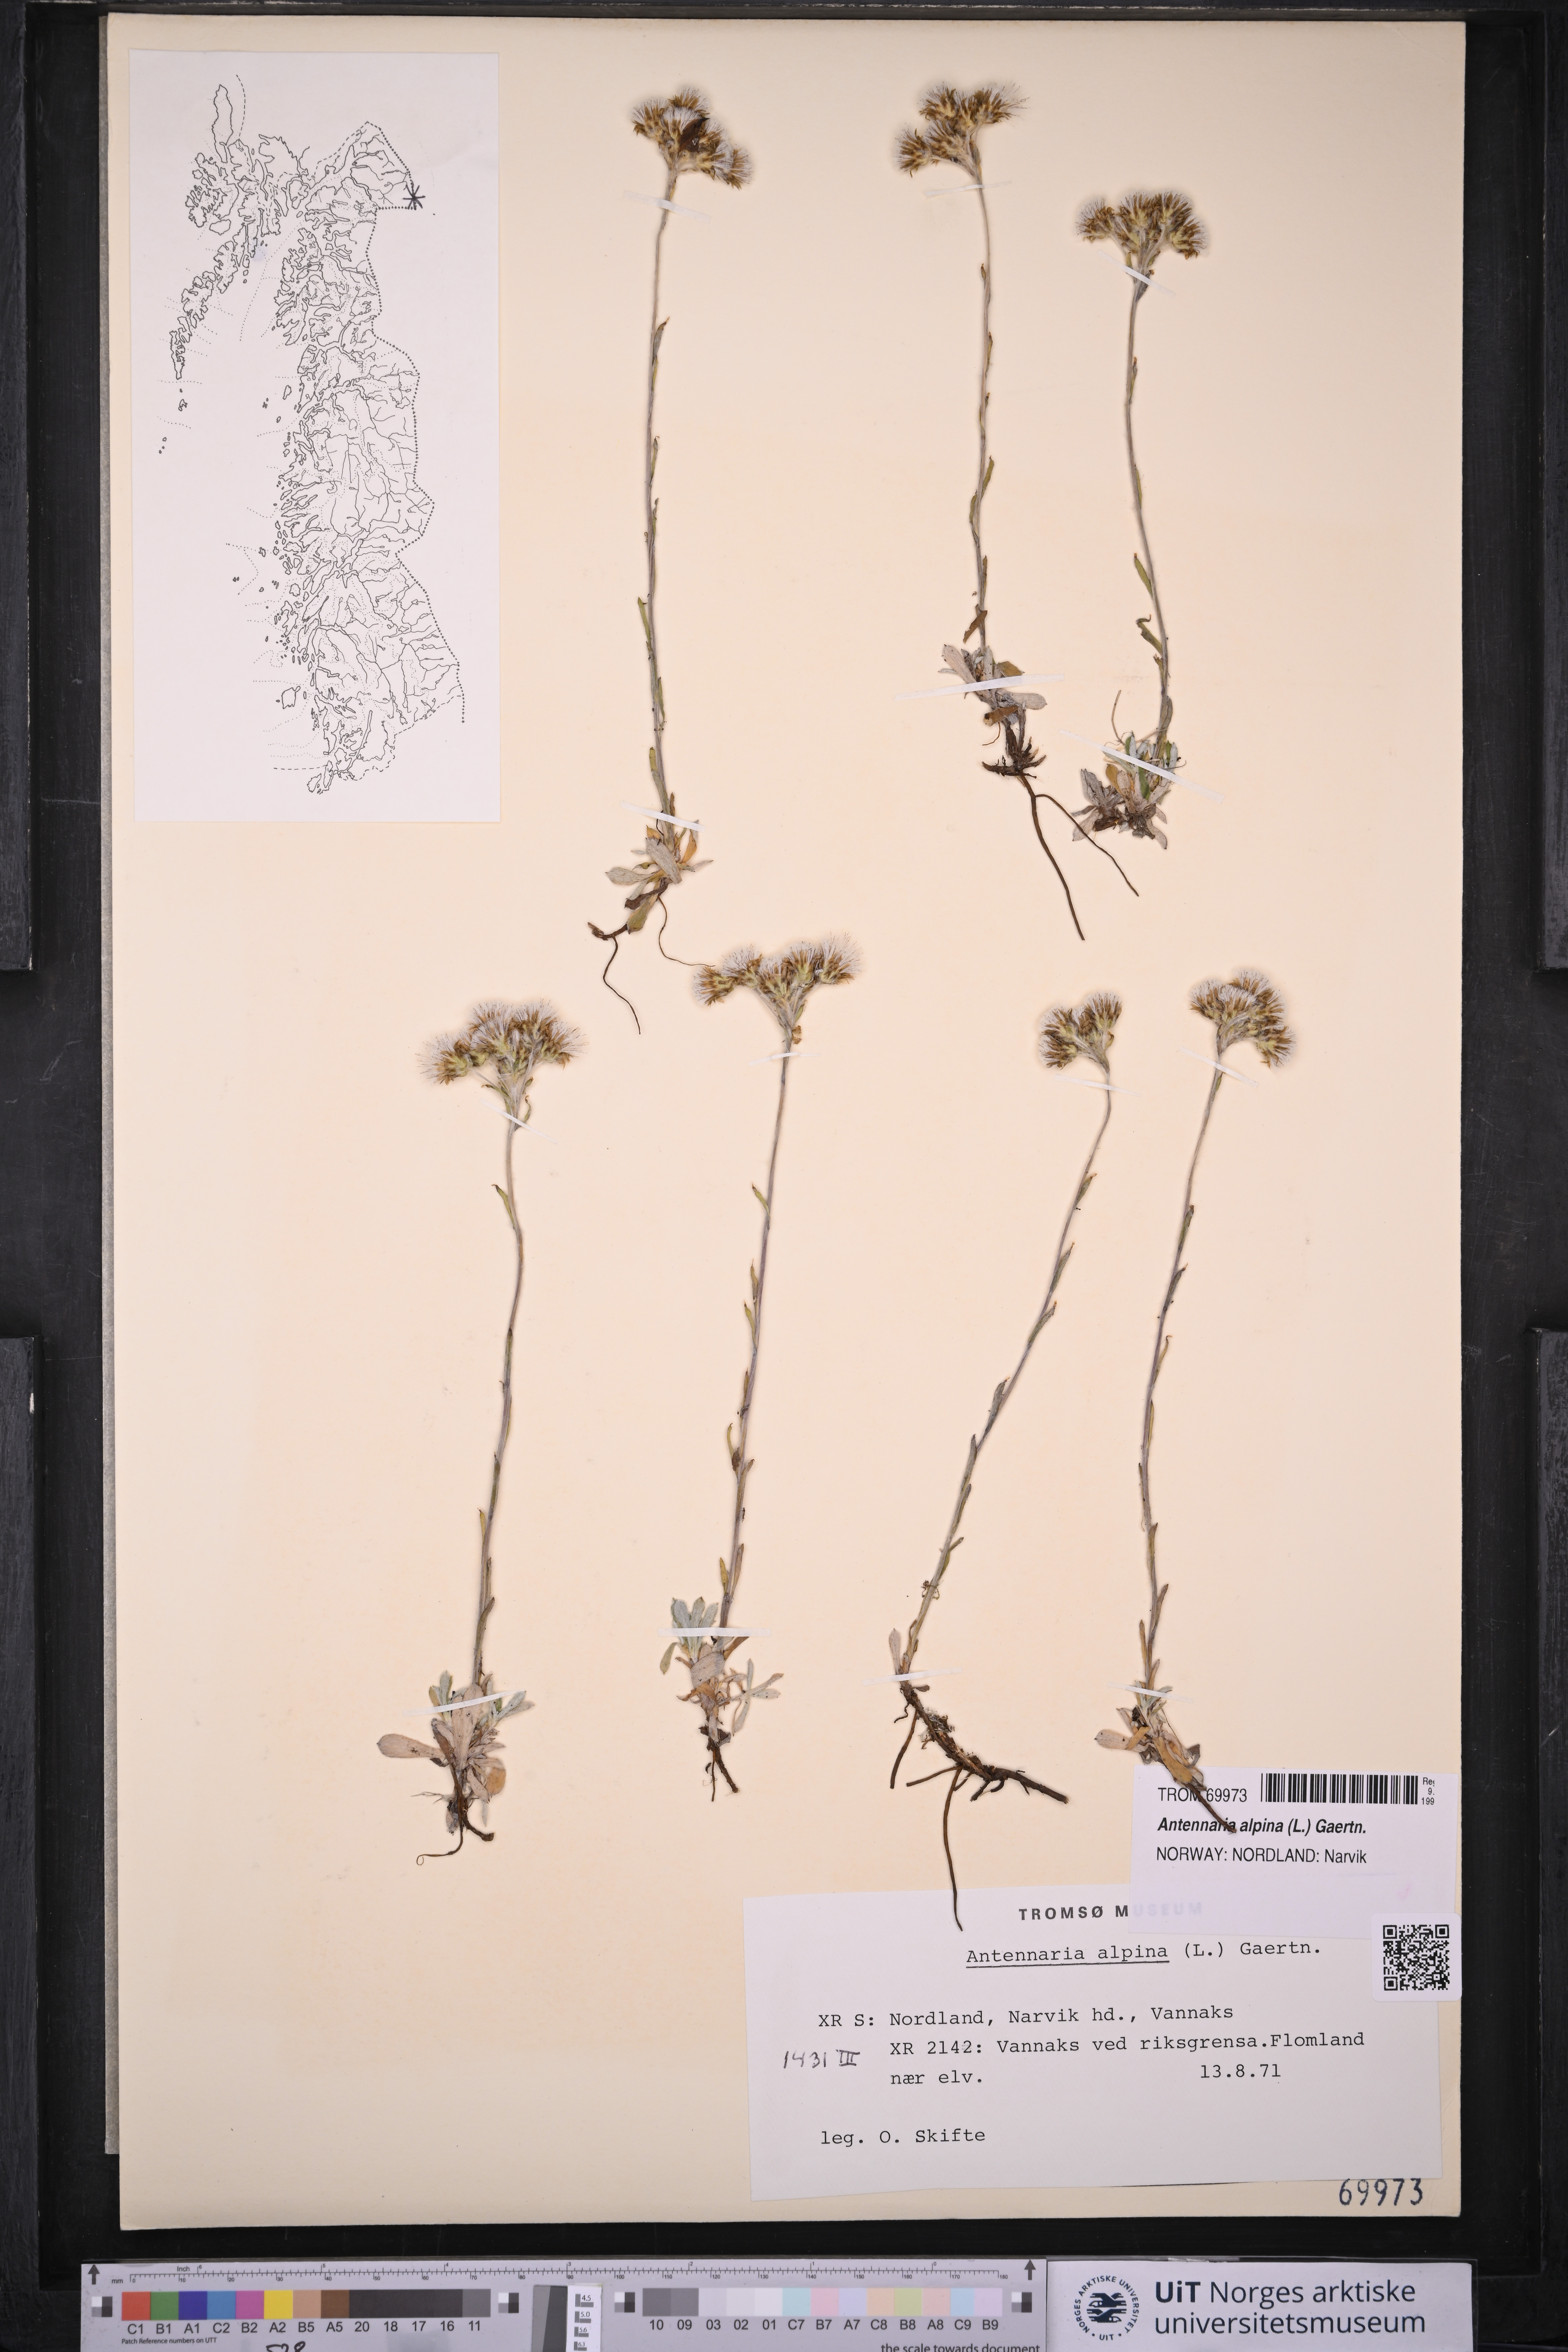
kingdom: Plantae
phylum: Tracheophyta
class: Magnoliopsida
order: Asterales
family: Asteraceae
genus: Antennaria
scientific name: Antennaria alpina
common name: Alpine pussytoes
